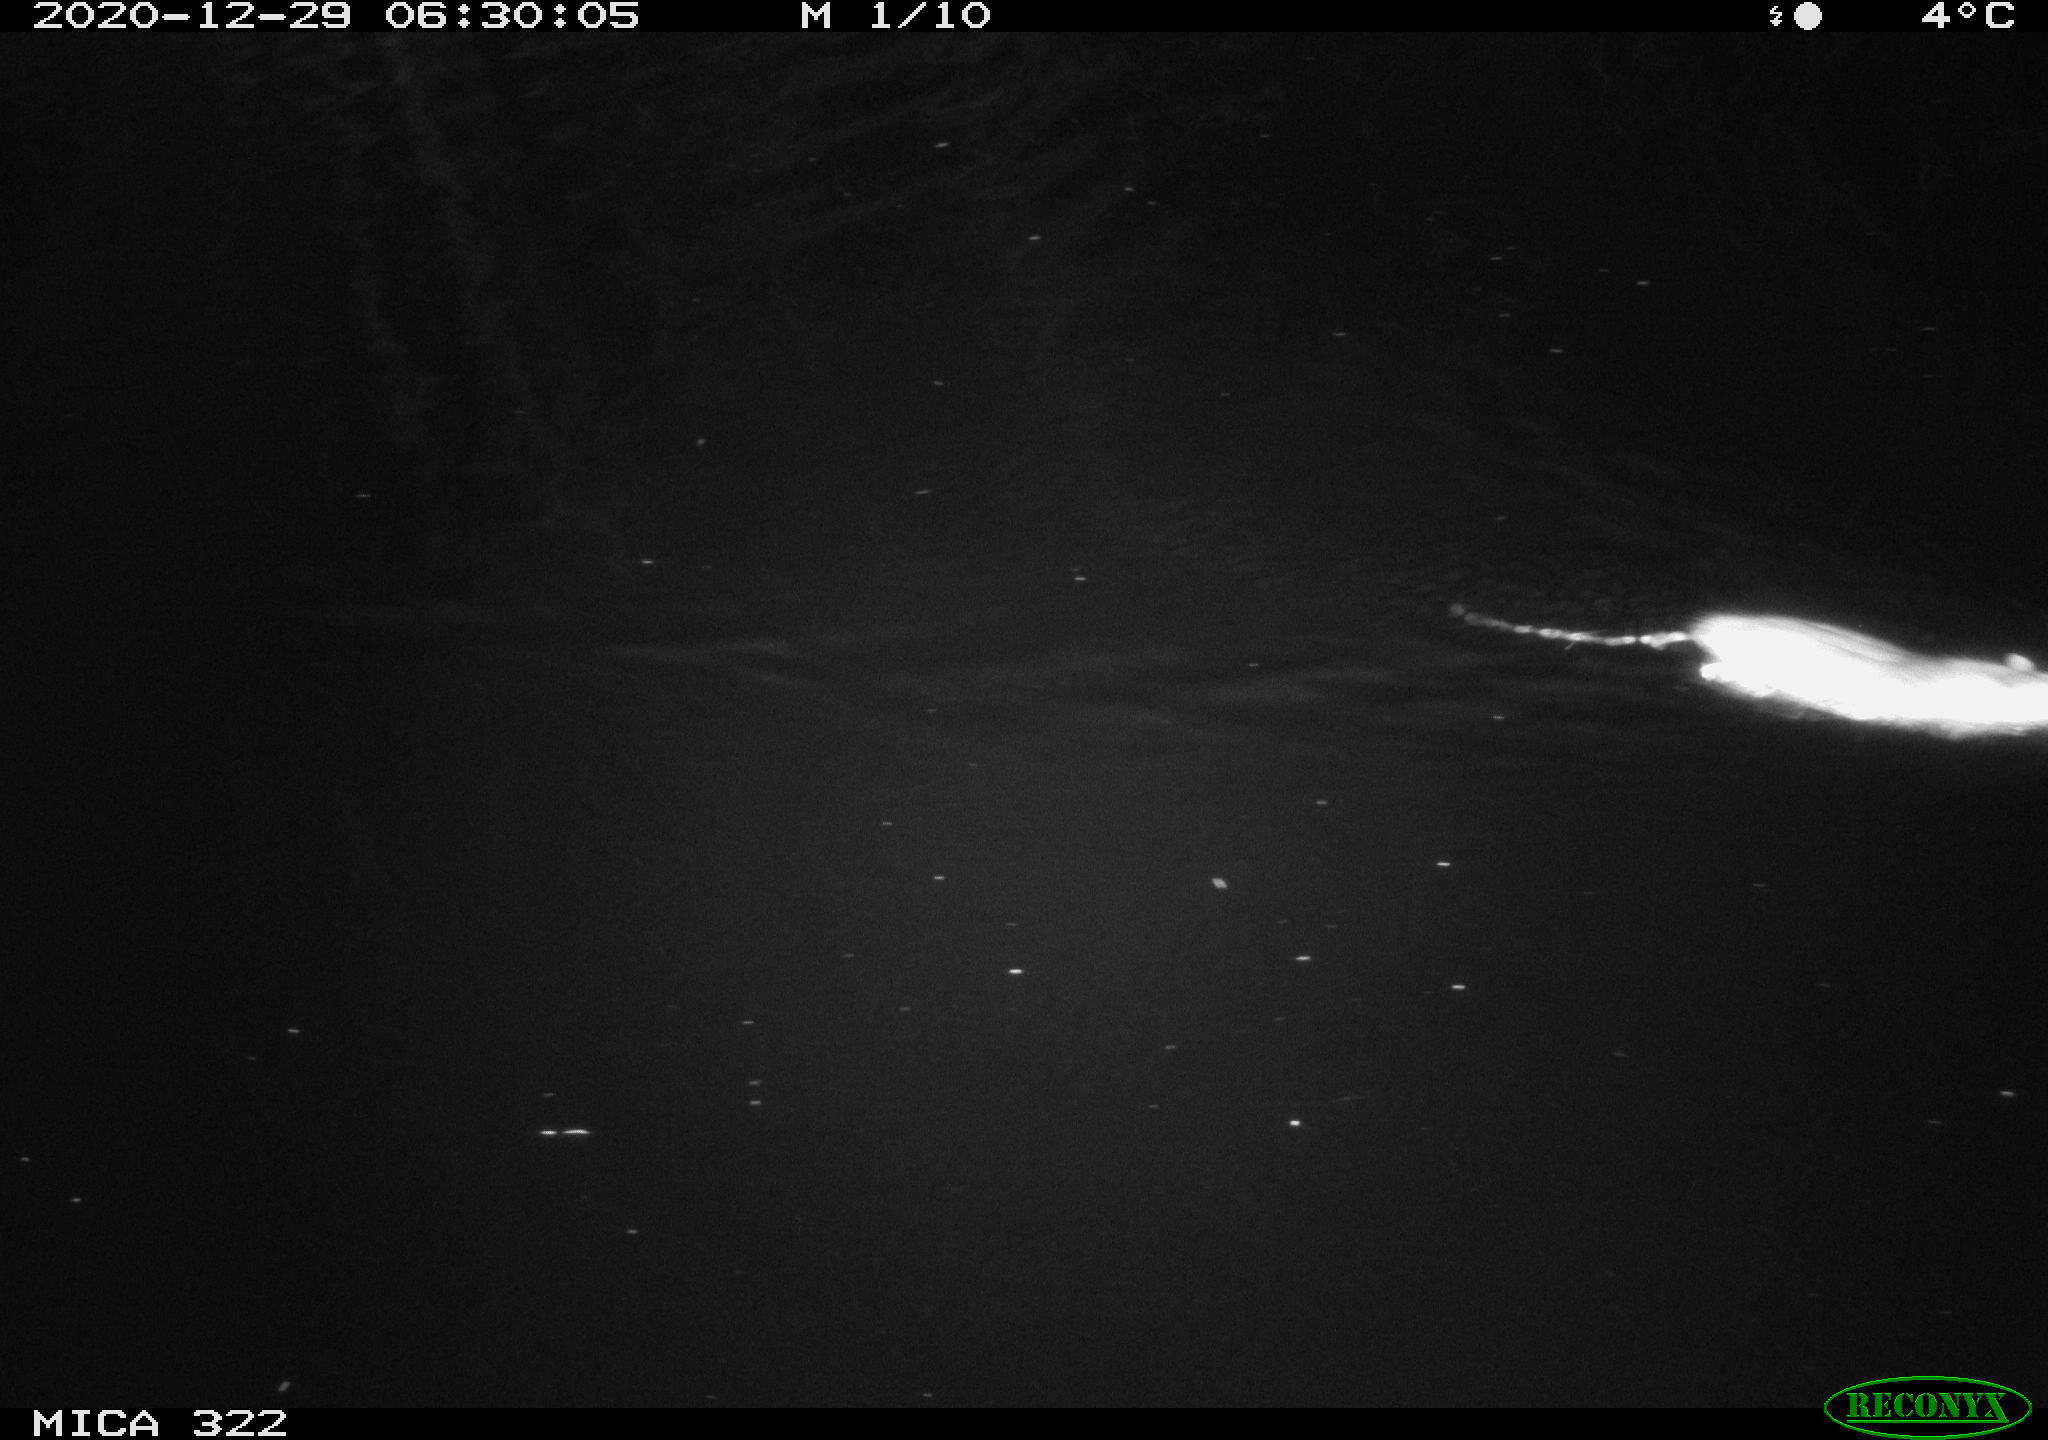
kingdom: Animalia
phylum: Chordata
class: Mammalia
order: Rodentia
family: Muridae
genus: Rattus
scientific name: Rattus norvegicus
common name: Brown rat
